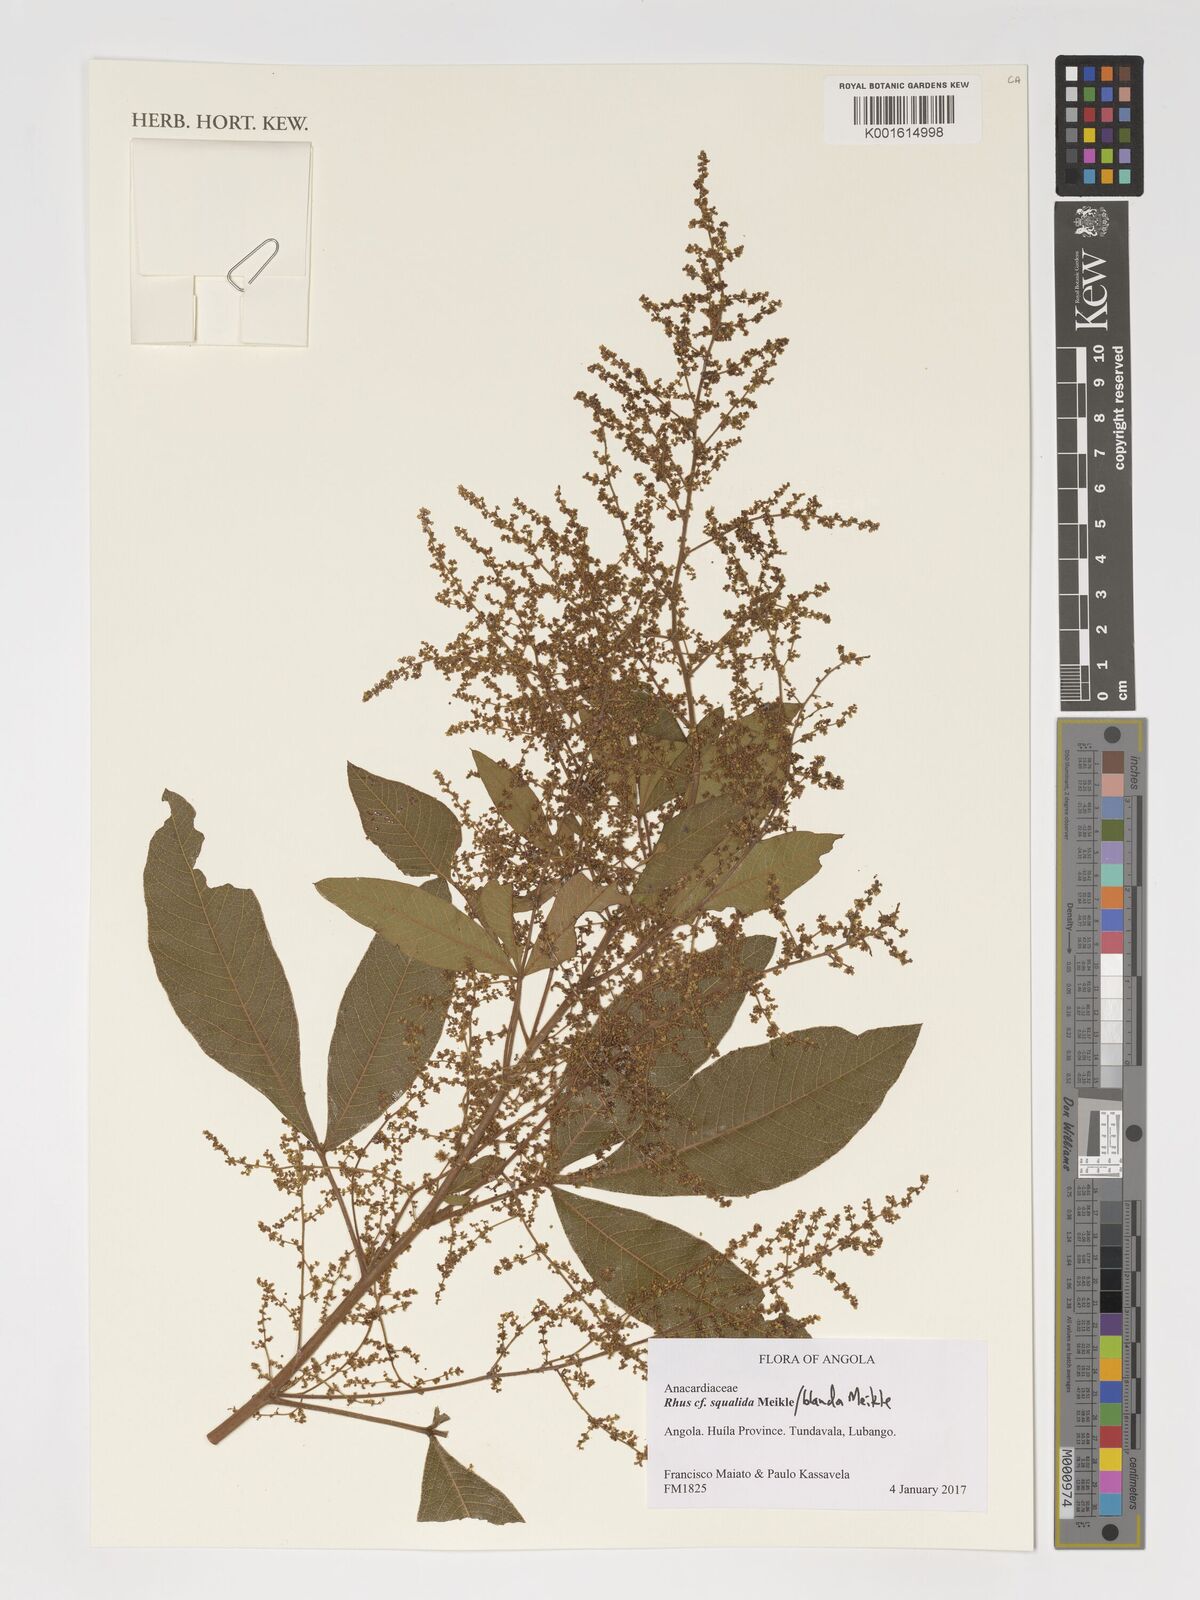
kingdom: Plantae
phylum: Tracheophyta
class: Magnoliopsida
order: Sapindales
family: Anacardiaceae
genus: Searsia
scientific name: Searsia squalida
